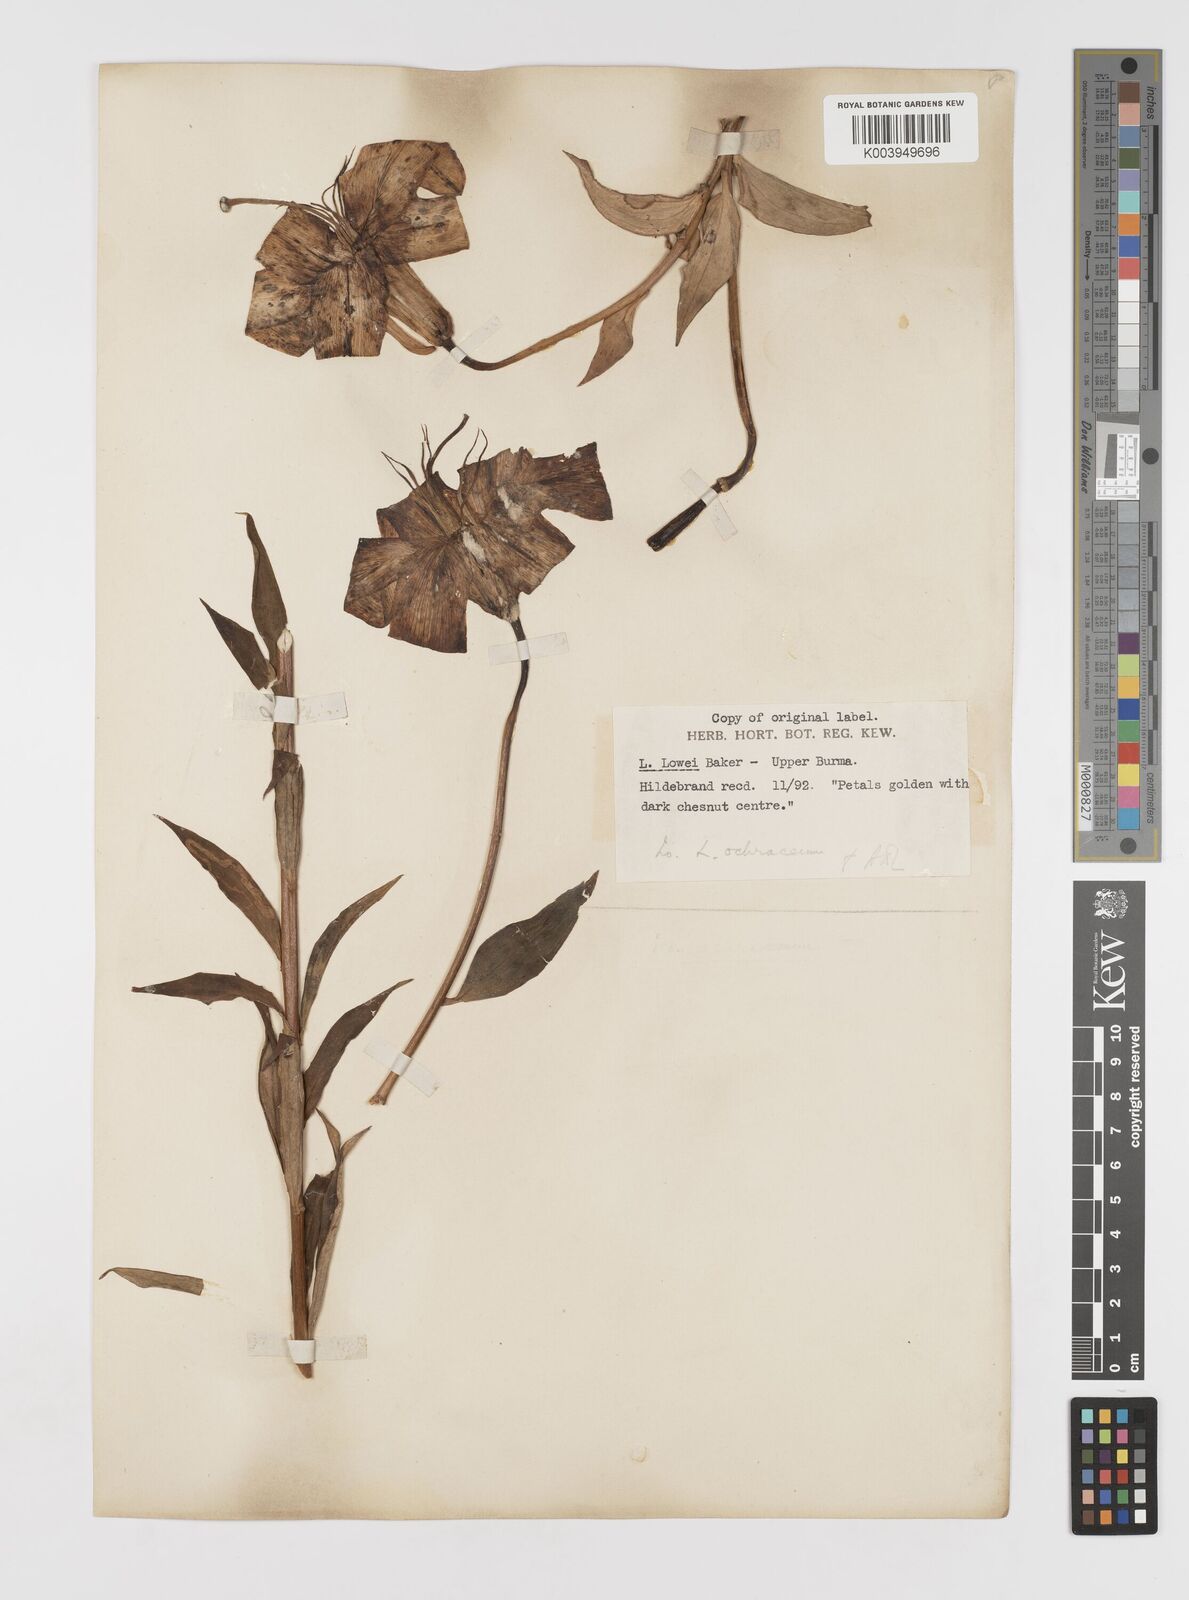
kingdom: Plantae
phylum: Tracheophyta
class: Liliopsida
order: Liliales
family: Liliaceae
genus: Lilium
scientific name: Lilium primulinum
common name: Ochre lily
